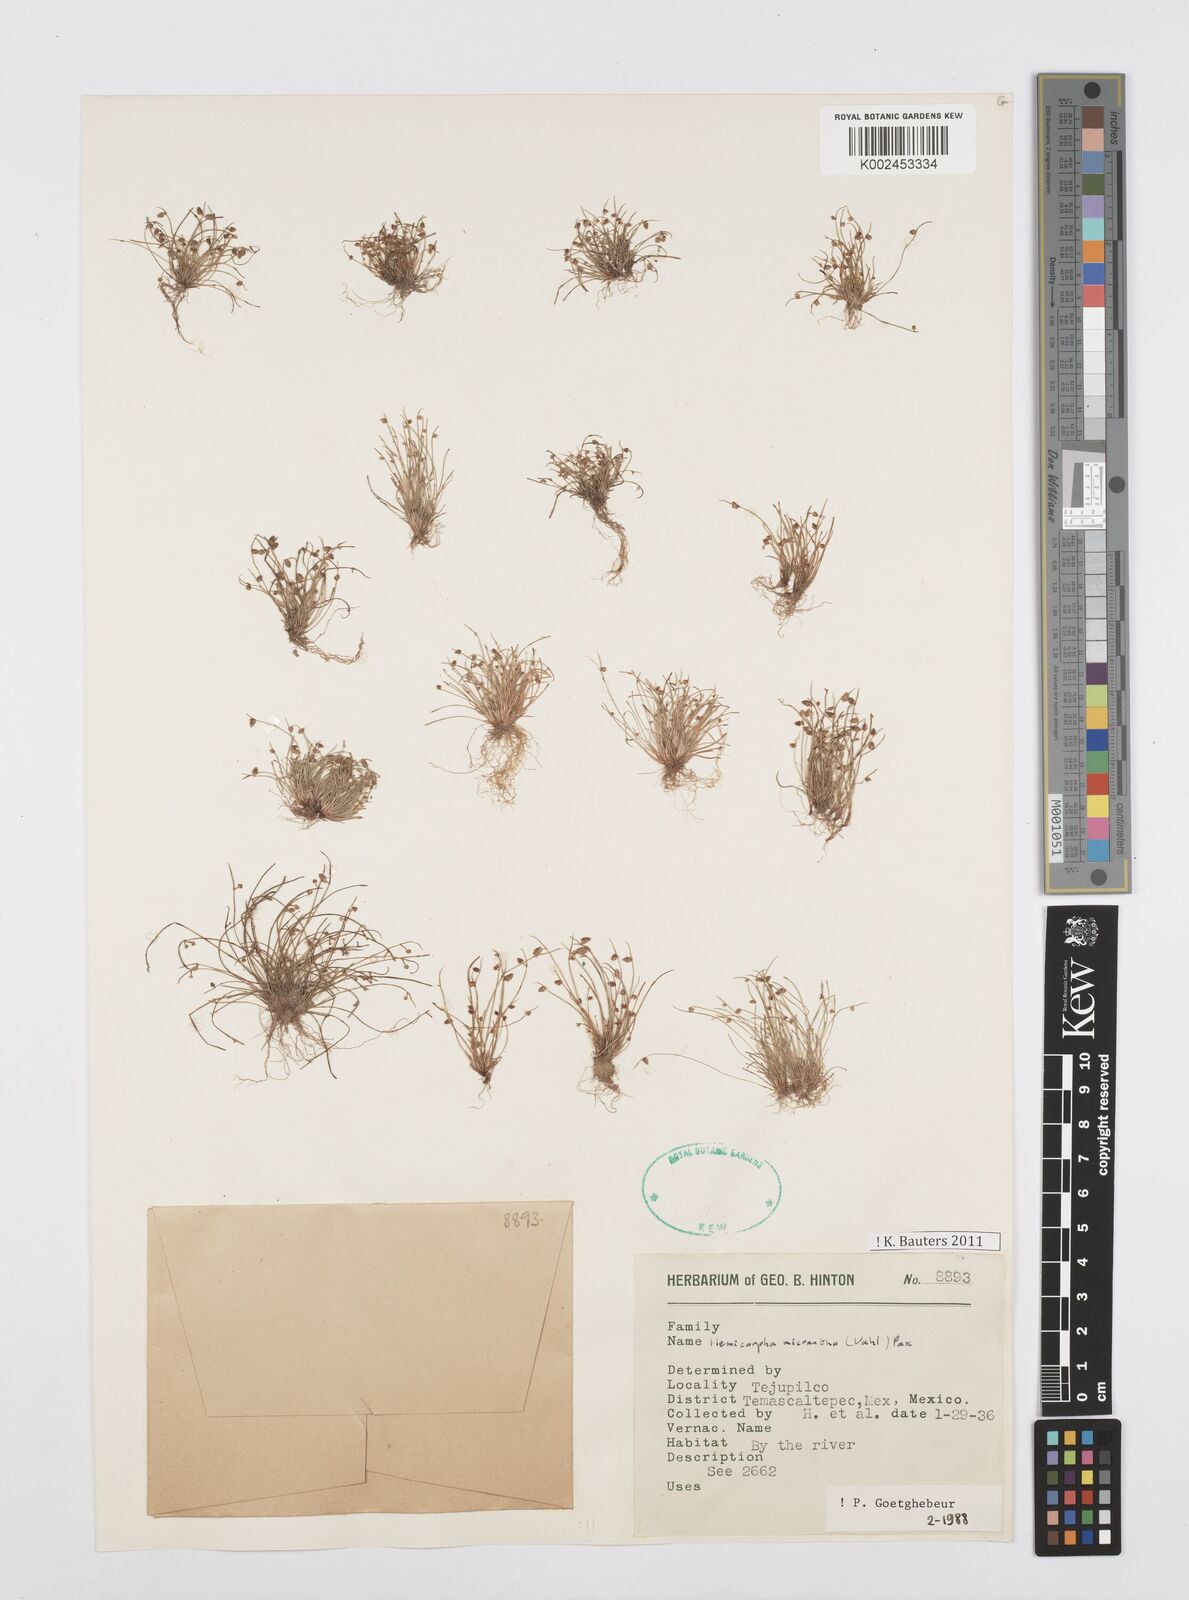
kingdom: Plantae
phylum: Tracheophyta
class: Liliopsida
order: Poales
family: Cyperaceae
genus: Cyperus
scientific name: Cyperus
